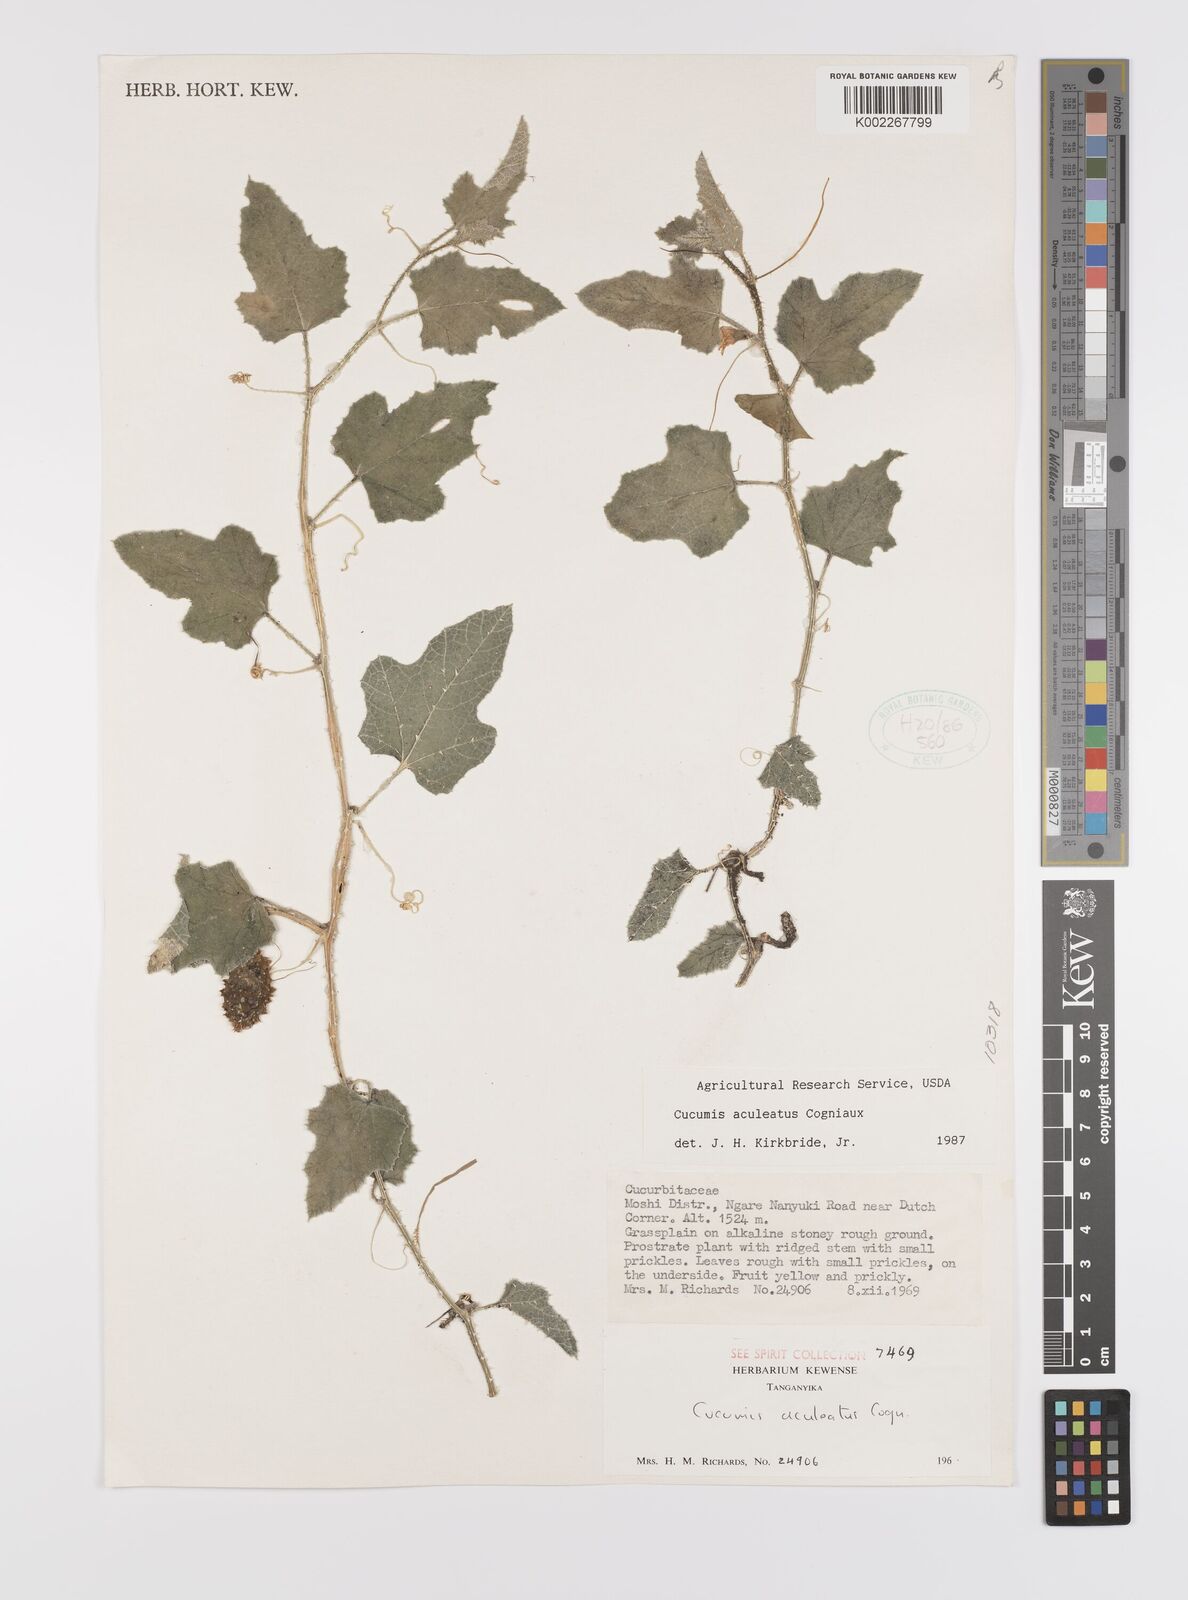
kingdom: Plantae
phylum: Tracheophyta
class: Magnoliopsida
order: Cucurbitales
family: Cucurbitaceae
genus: Cucumis
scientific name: Cucumis aculeatus
